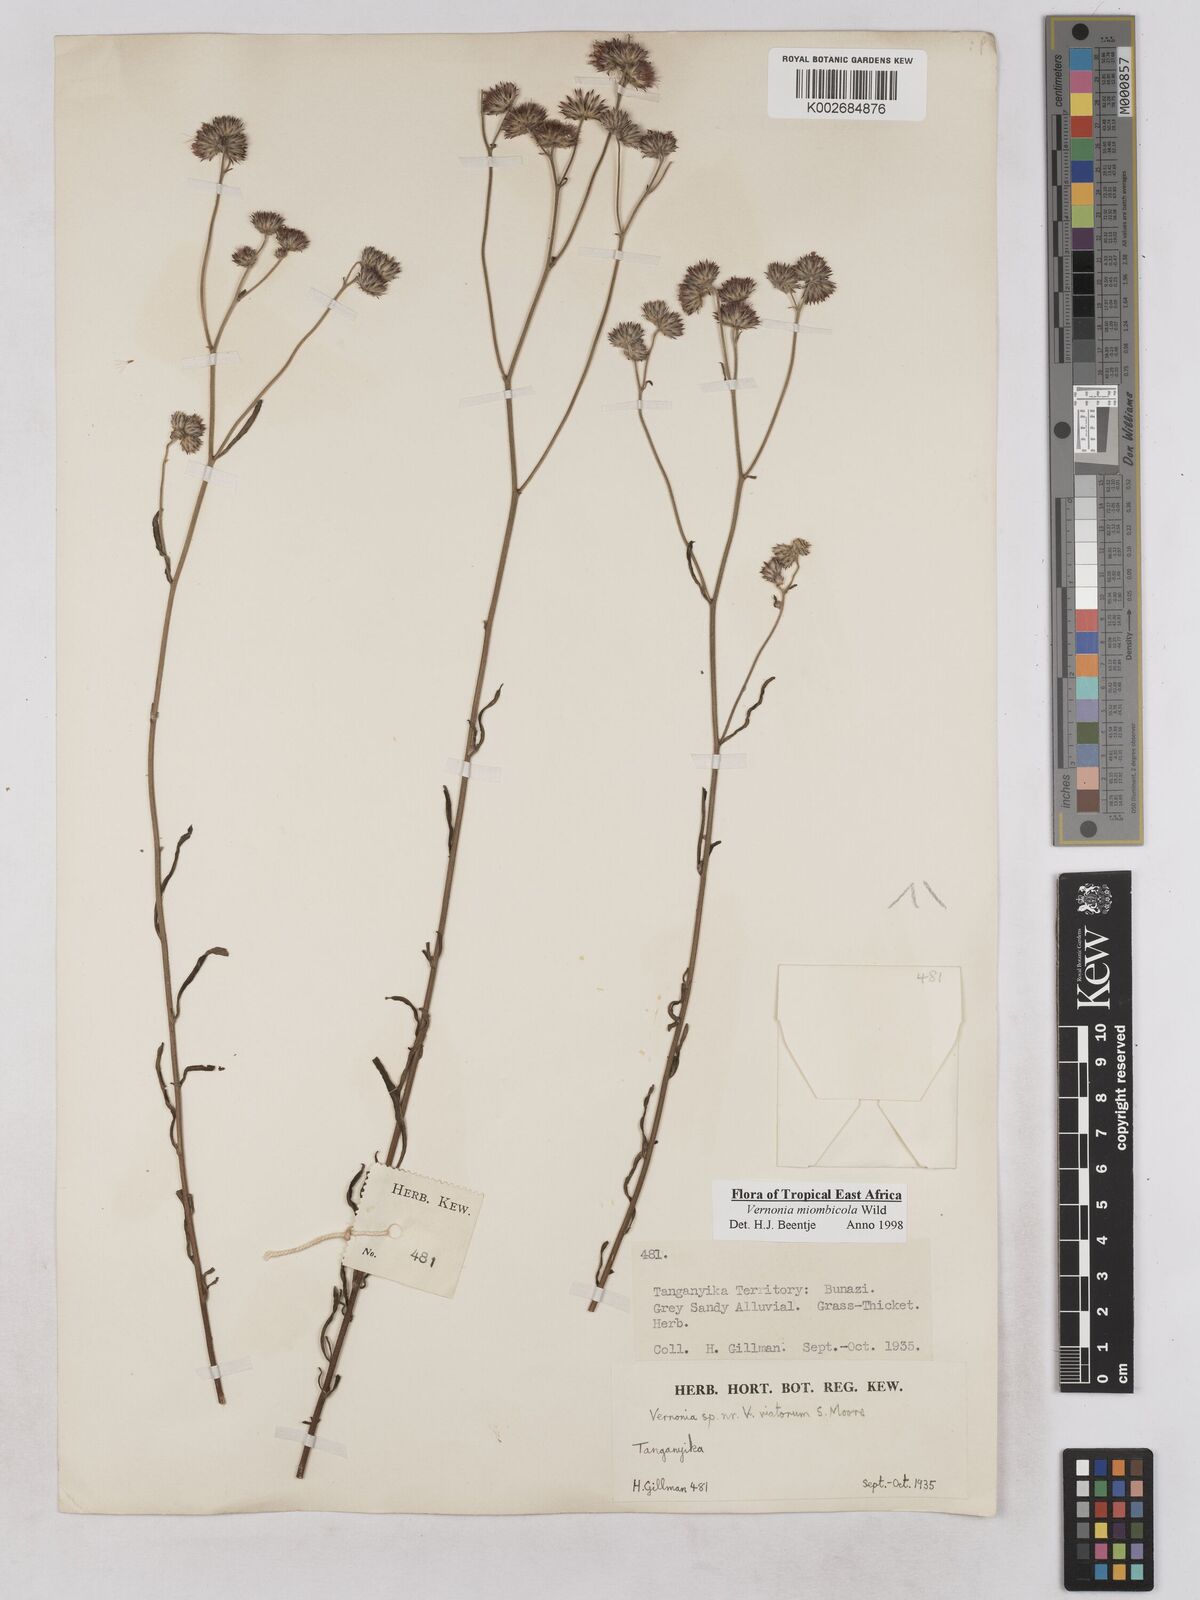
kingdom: Plantae
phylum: Tracheophyta
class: Magnoliopsida
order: Asterales
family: Asteraceae
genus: Vernonia
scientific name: Vernonia miombicola
